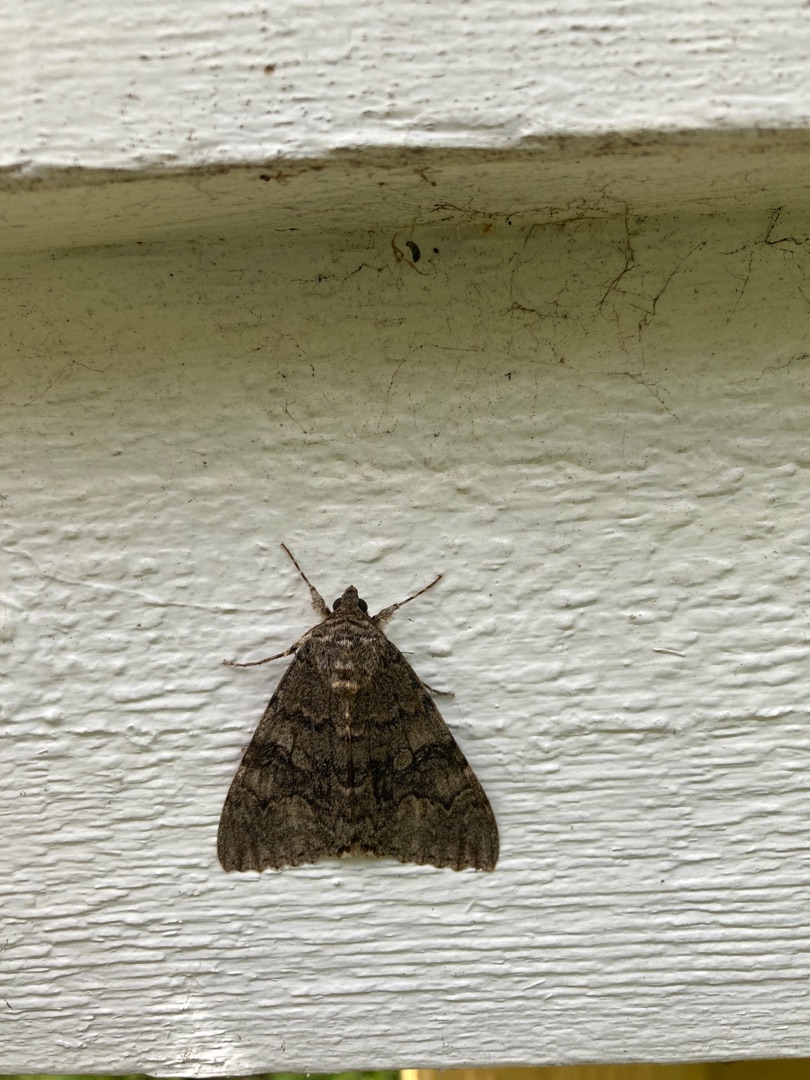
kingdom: Animalia
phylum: Arthropoda
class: Insecta
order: Lepidoptera
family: Erebidae
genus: Catocala
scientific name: Catocala nupta
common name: Rødt ordensbånd
